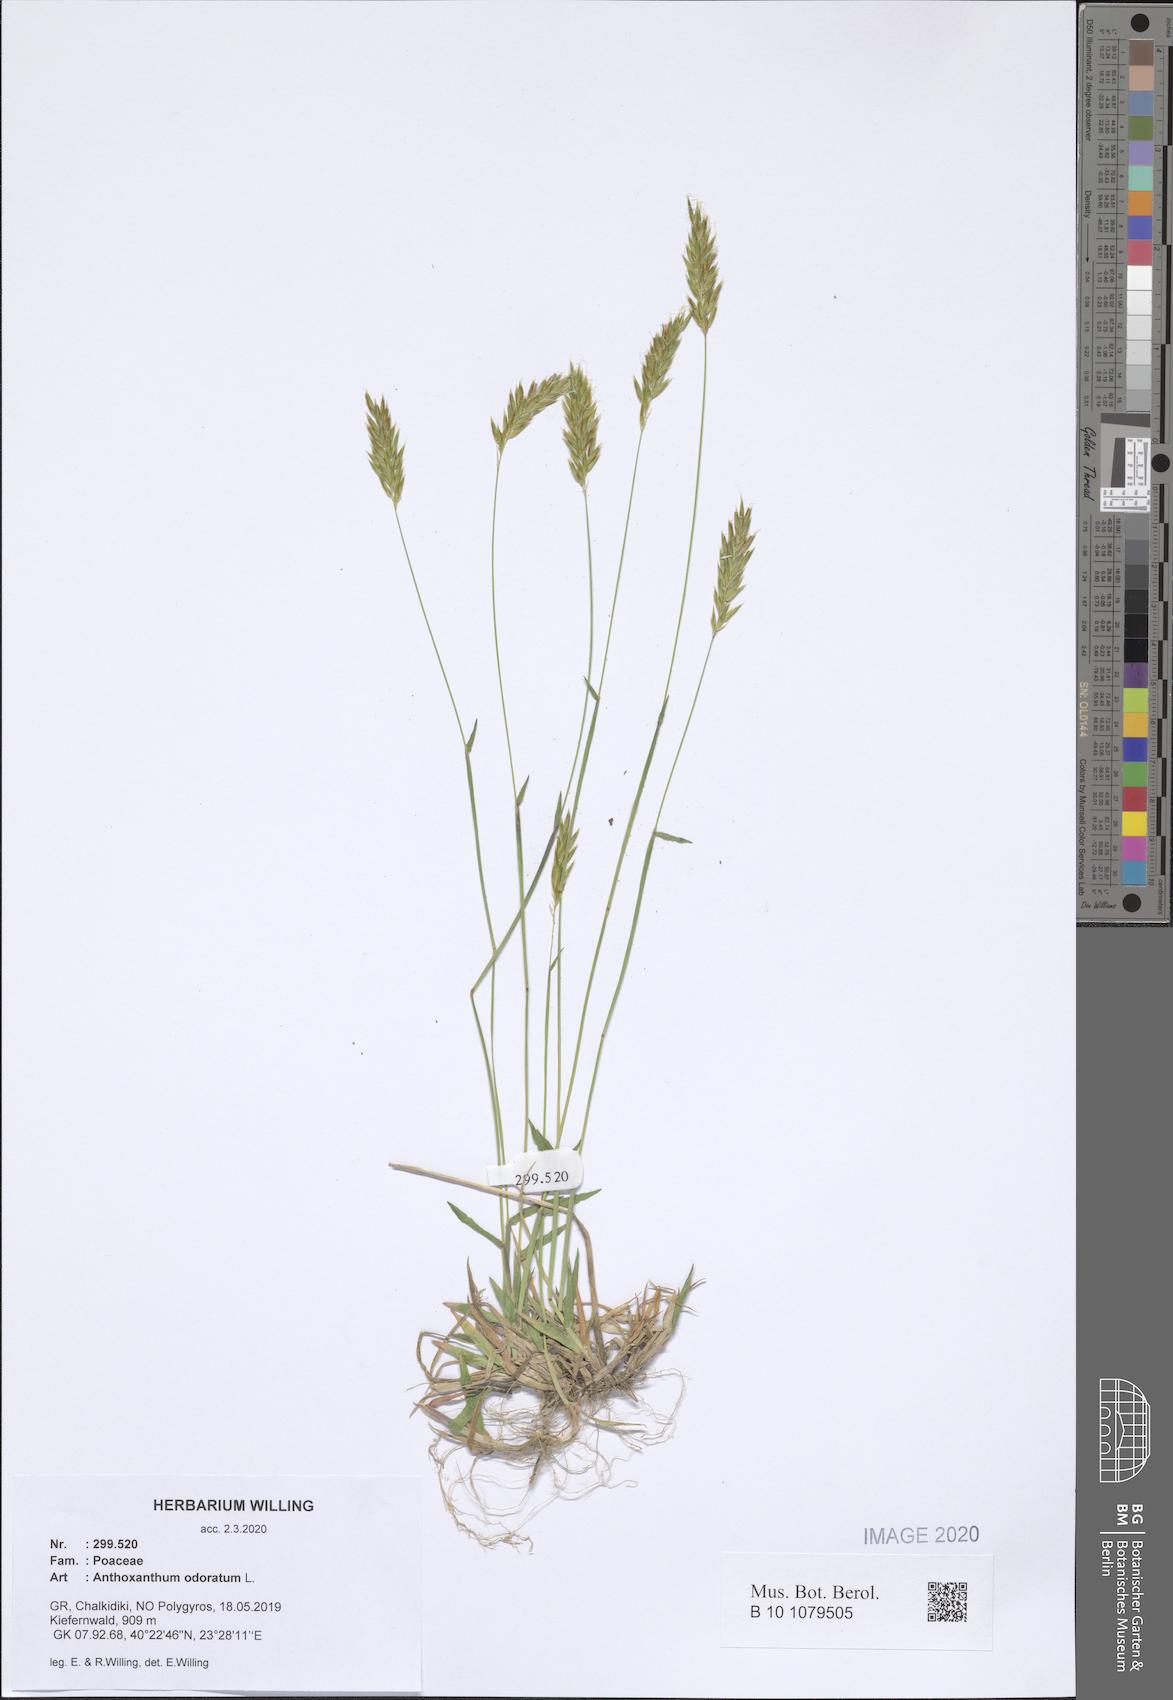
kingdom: Plantae
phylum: Tracheophyta
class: Liliopsida
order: Poales
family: Poaceae
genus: Anthoxanthum
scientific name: Anthoxanthum odoratum
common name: Sweet vernalgrass
